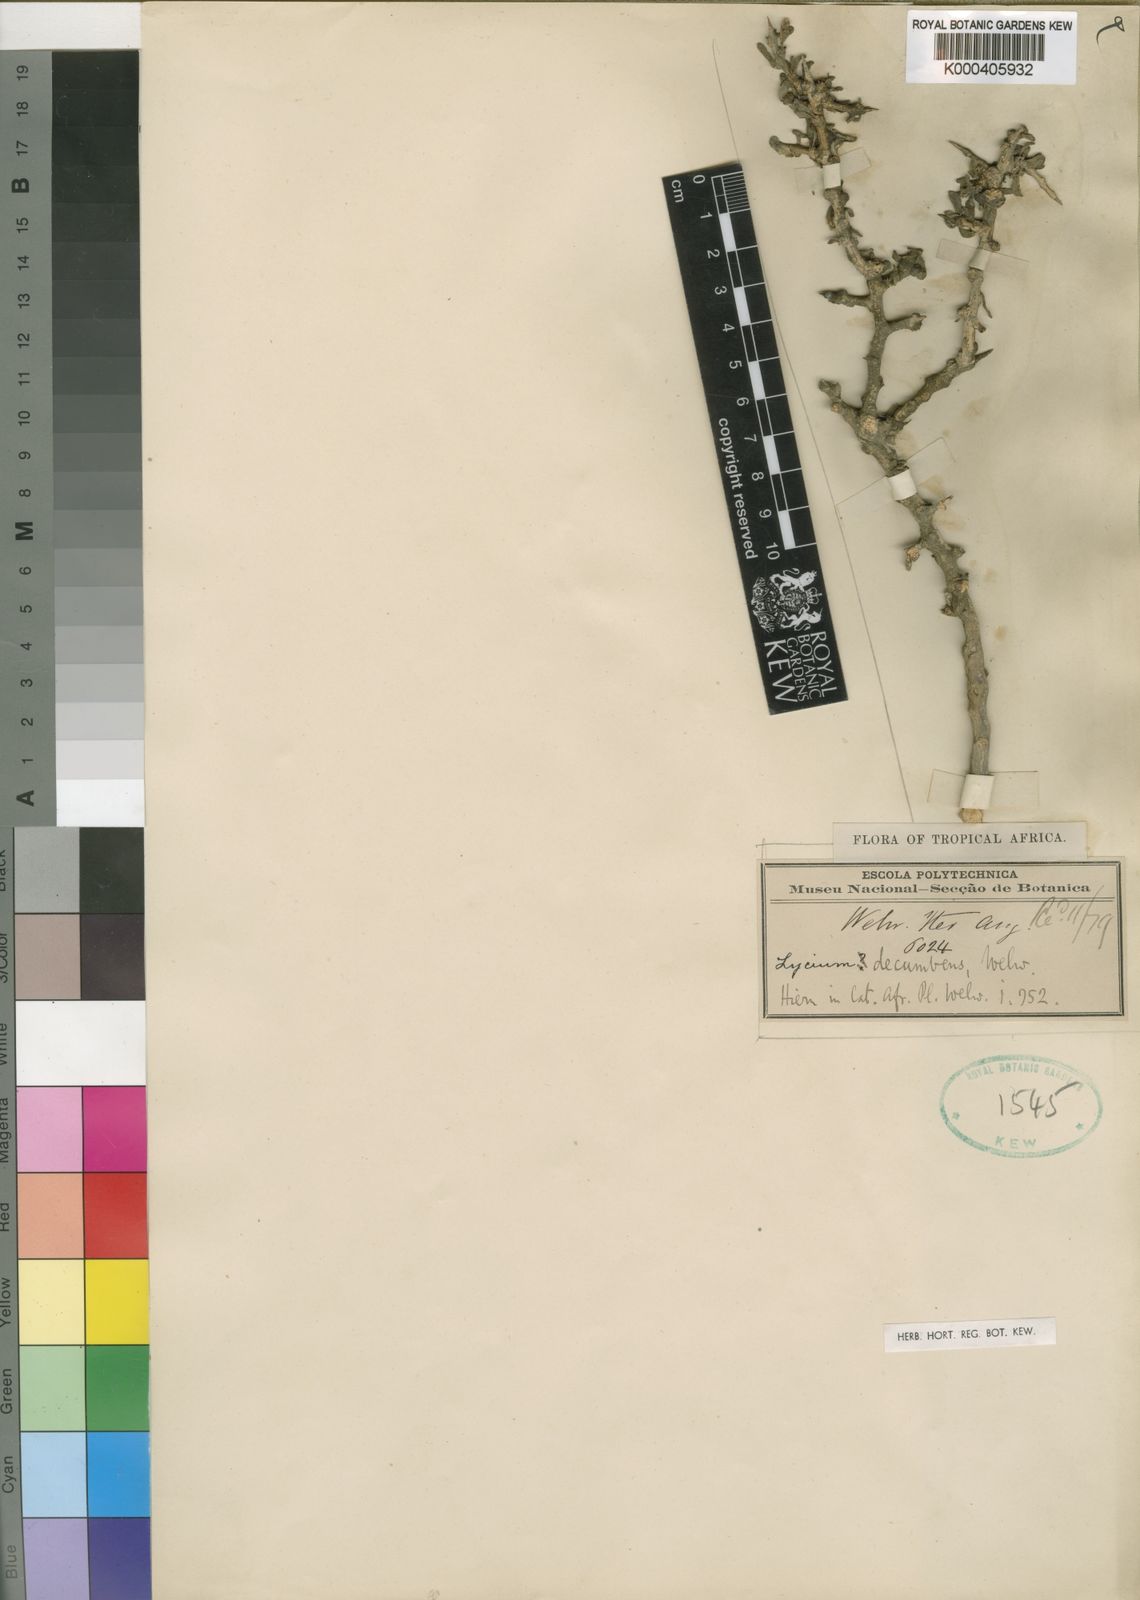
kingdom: Plantae
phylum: Tracheophyta
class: Magnoliopsida
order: Solanales
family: Solanaceae
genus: Lycium
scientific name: Lycium decumbens
